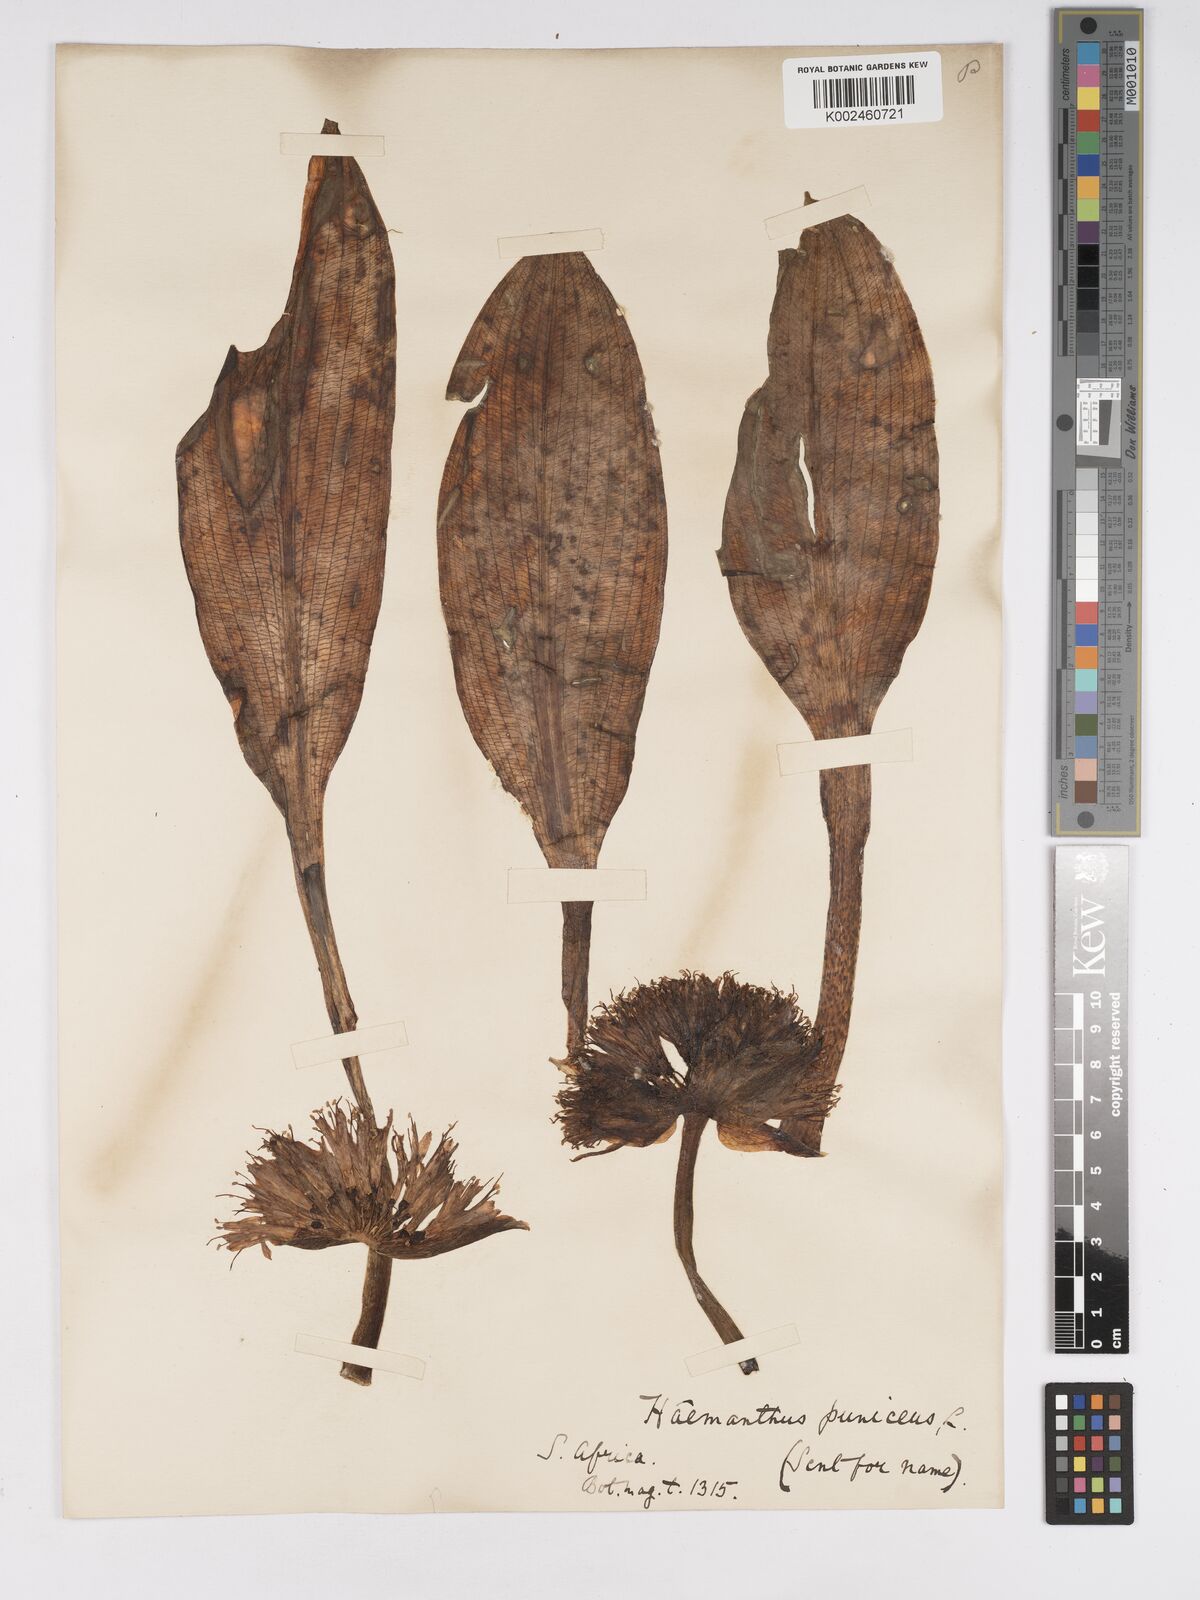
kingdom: Plantae
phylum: Tracheophyta
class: Liliopsida
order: Asparagales
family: Amaryllidaceae
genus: Scadoxus
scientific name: Scadoxus puniceus
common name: Royal-paintbrush
